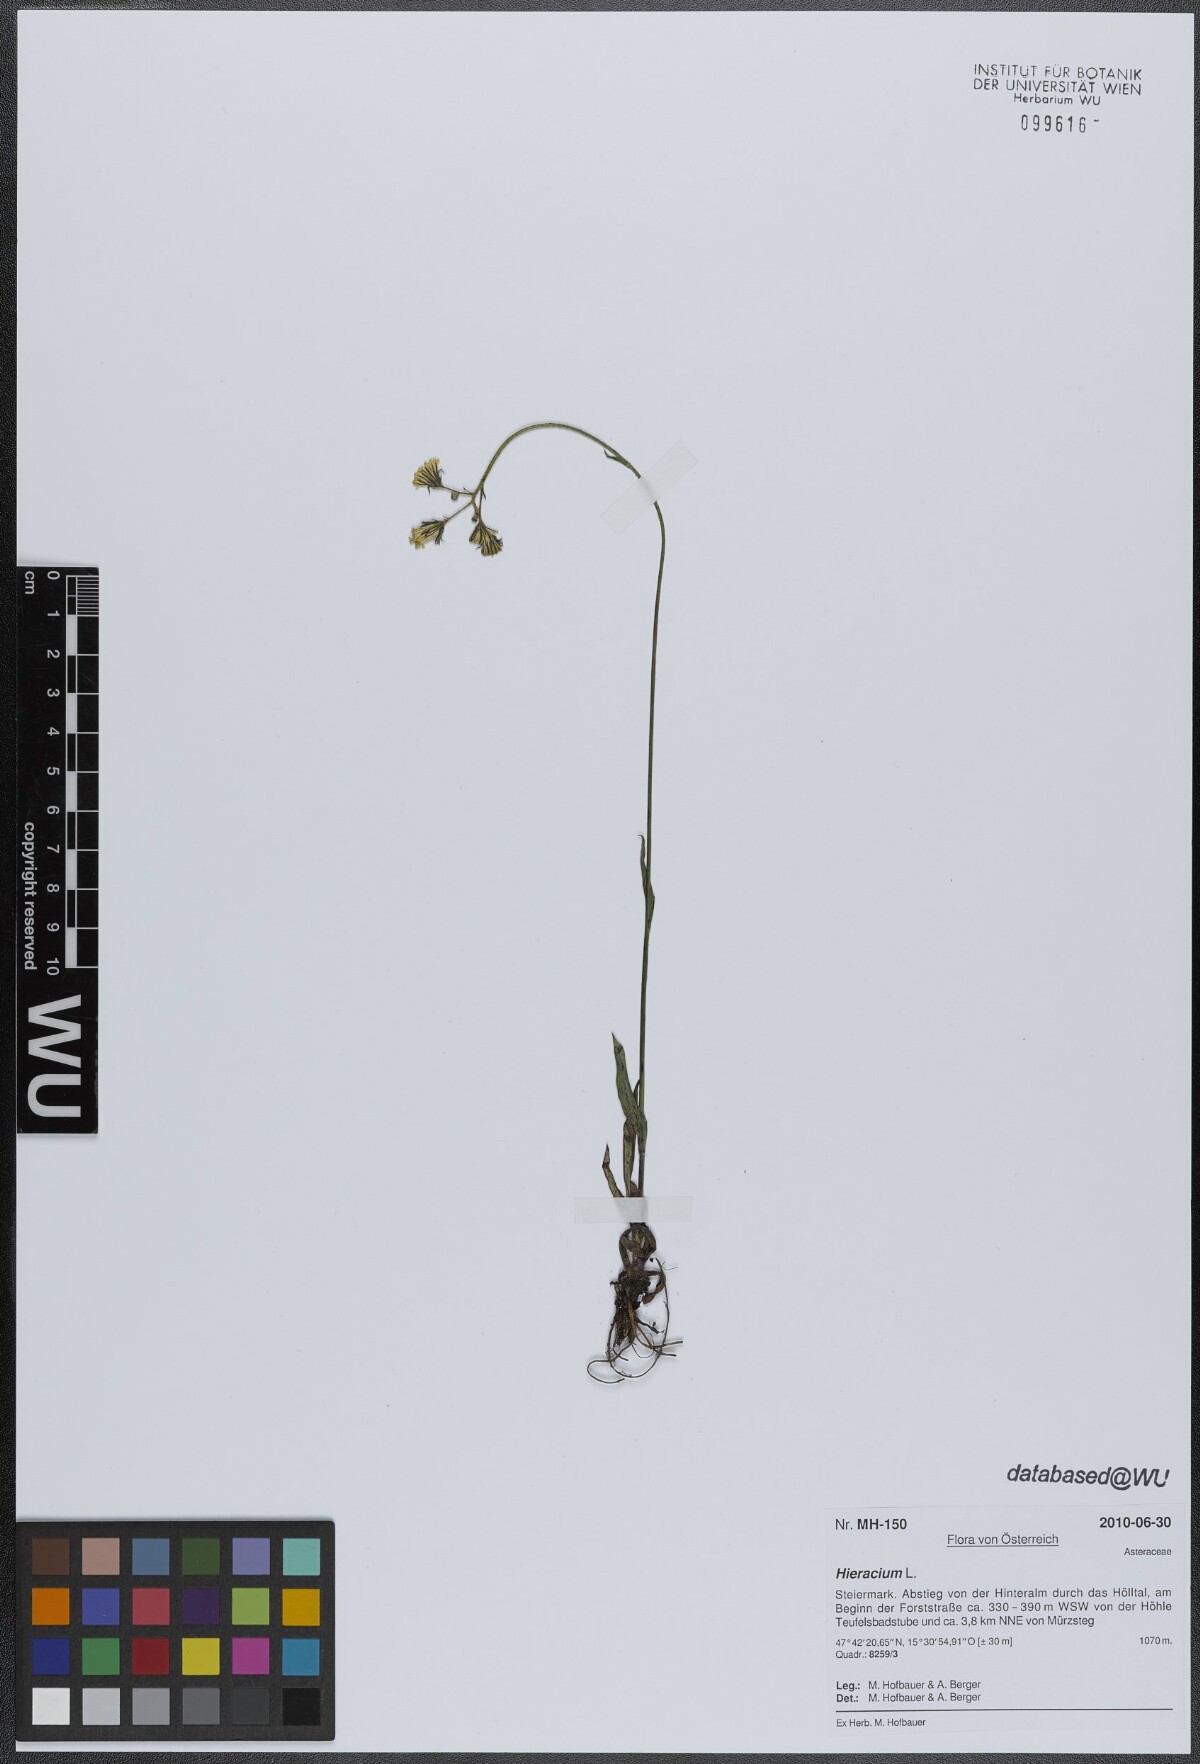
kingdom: Plantae
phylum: Tracheophyta
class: Magnoliopsida
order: Asterales
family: Asteraceae
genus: Hieracium
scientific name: Hieracium
